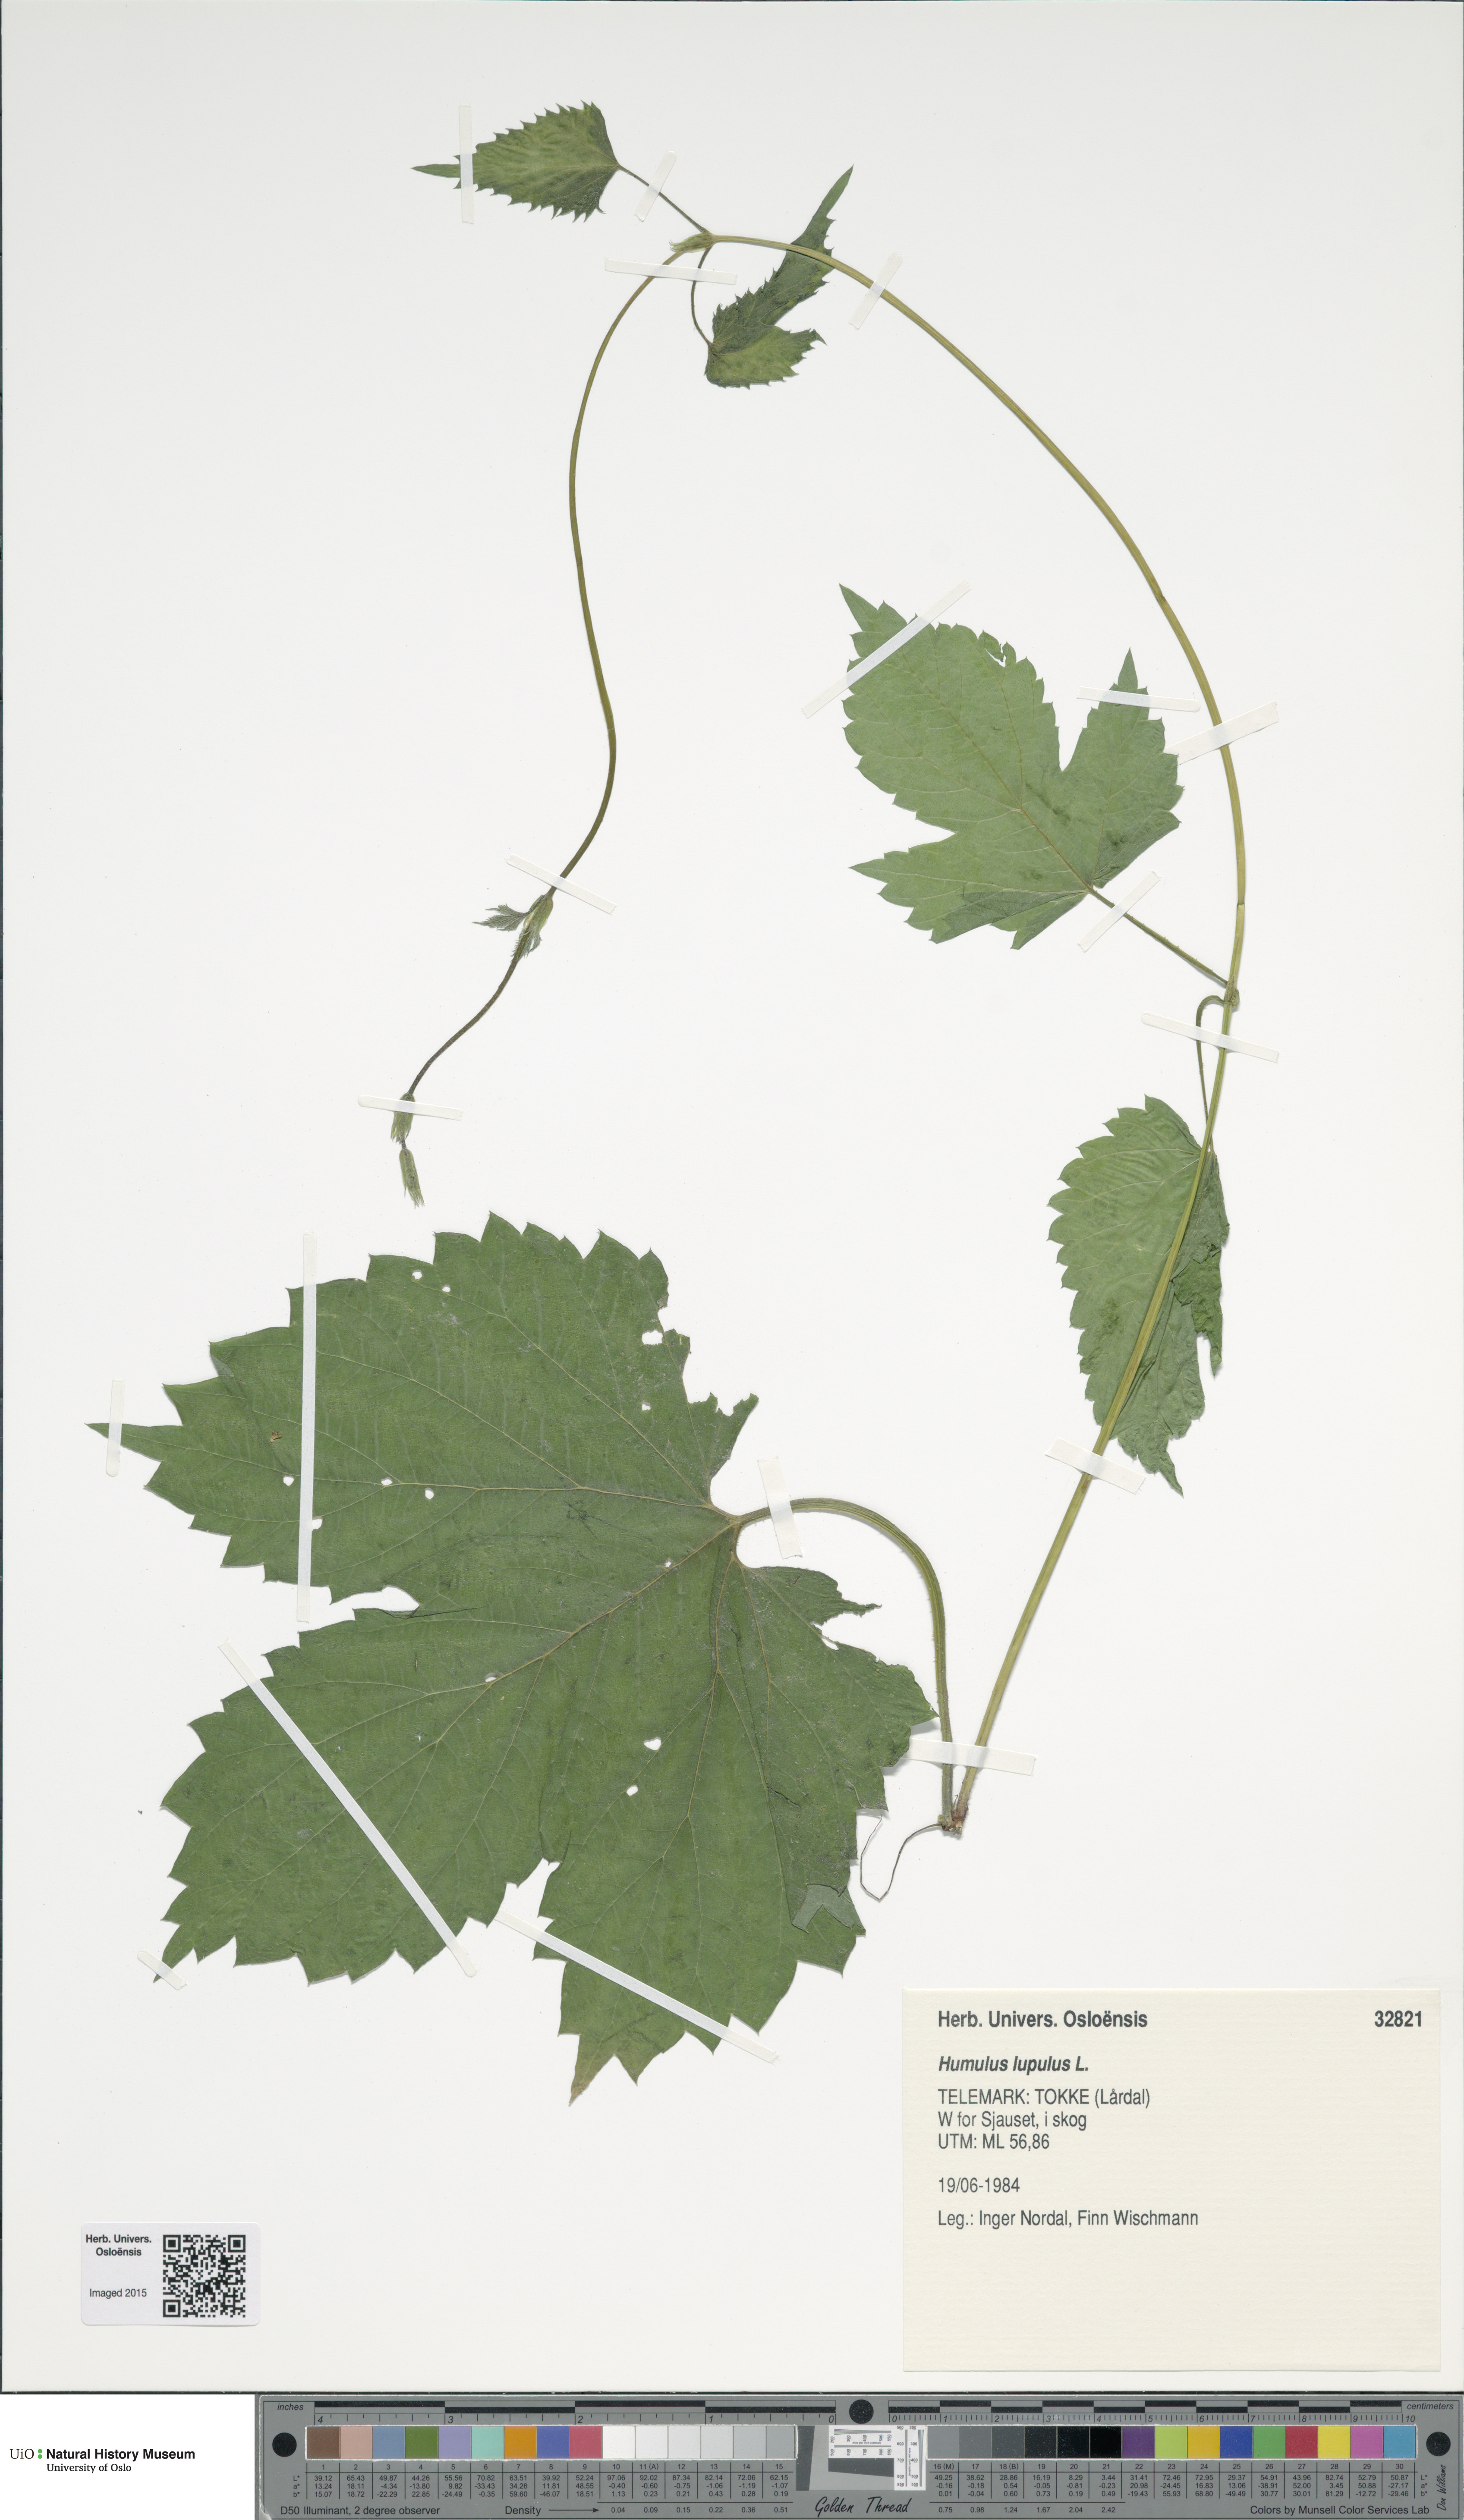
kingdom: Plantae
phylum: Tracheophyta
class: Magnoliopsida
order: Rosales
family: Cannabaceae
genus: Humulus
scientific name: Humulus lupulus
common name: Hop
